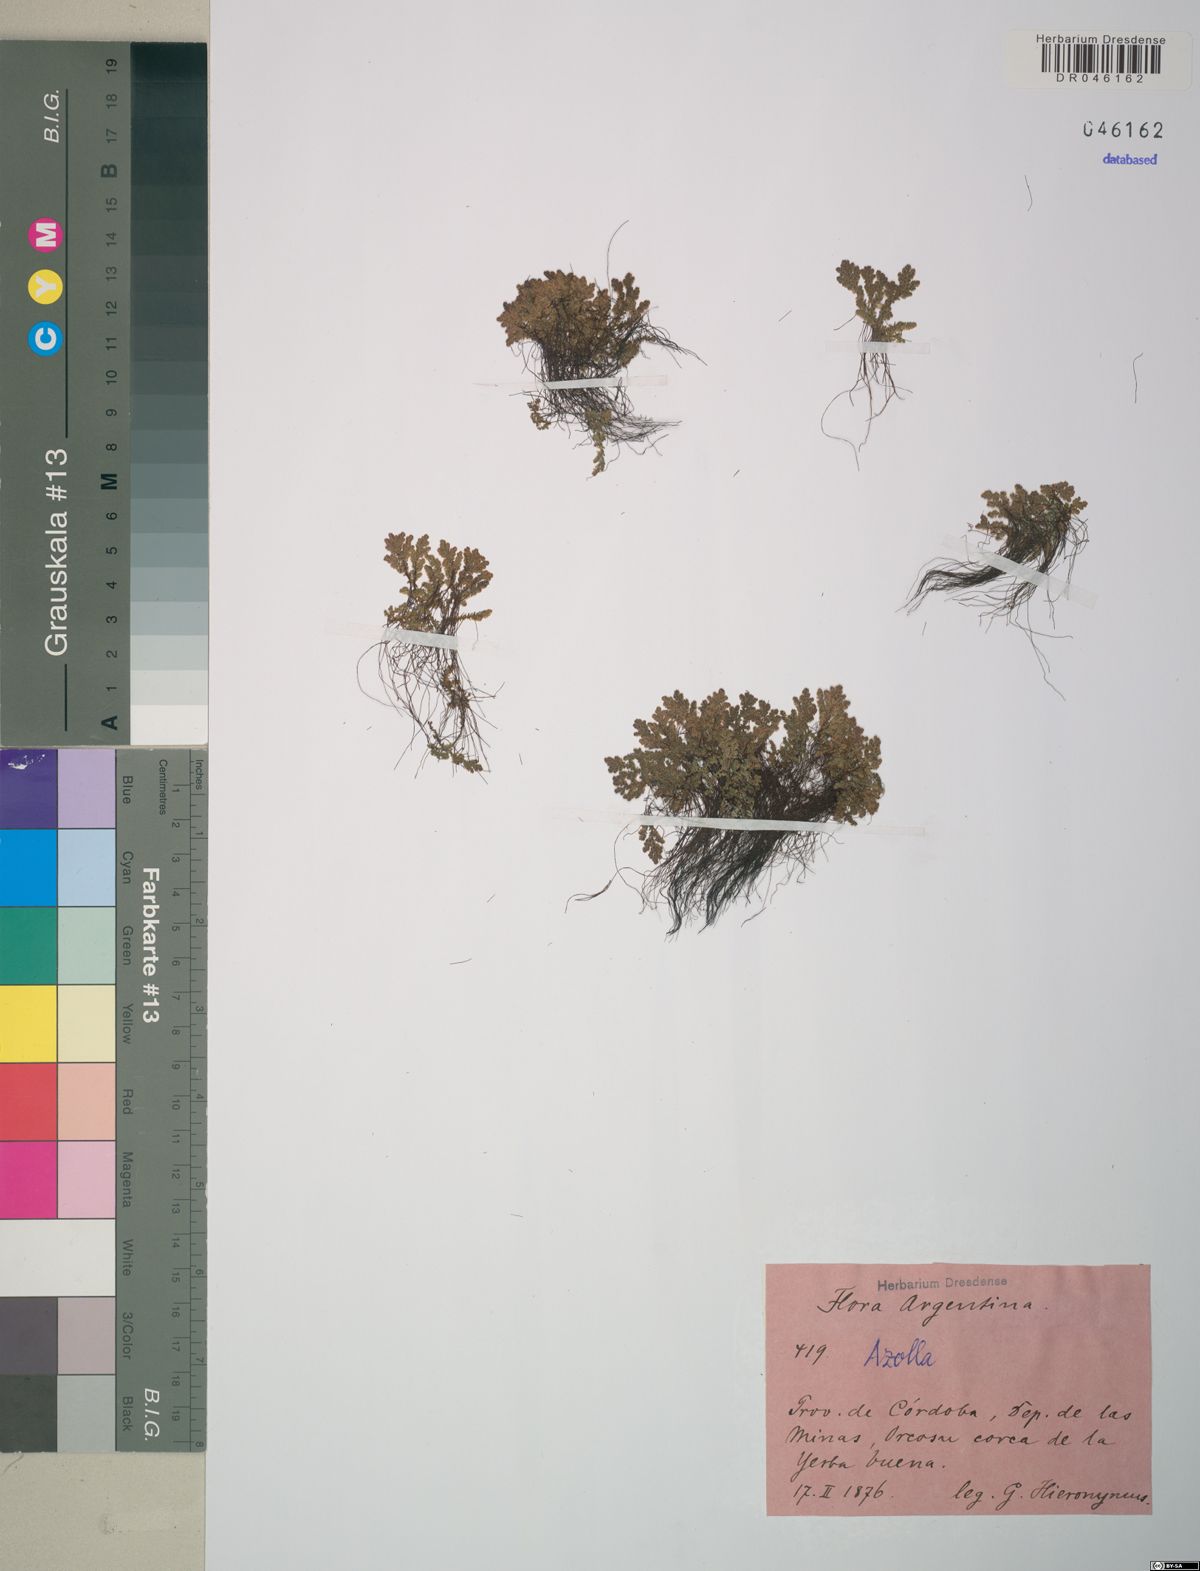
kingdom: Plantae
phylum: Tracheophyta
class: Polypodiopsida
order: Salviniales
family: Salviniaceae
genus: Azolla
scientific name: Azolla filiculoides
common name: Water fern
